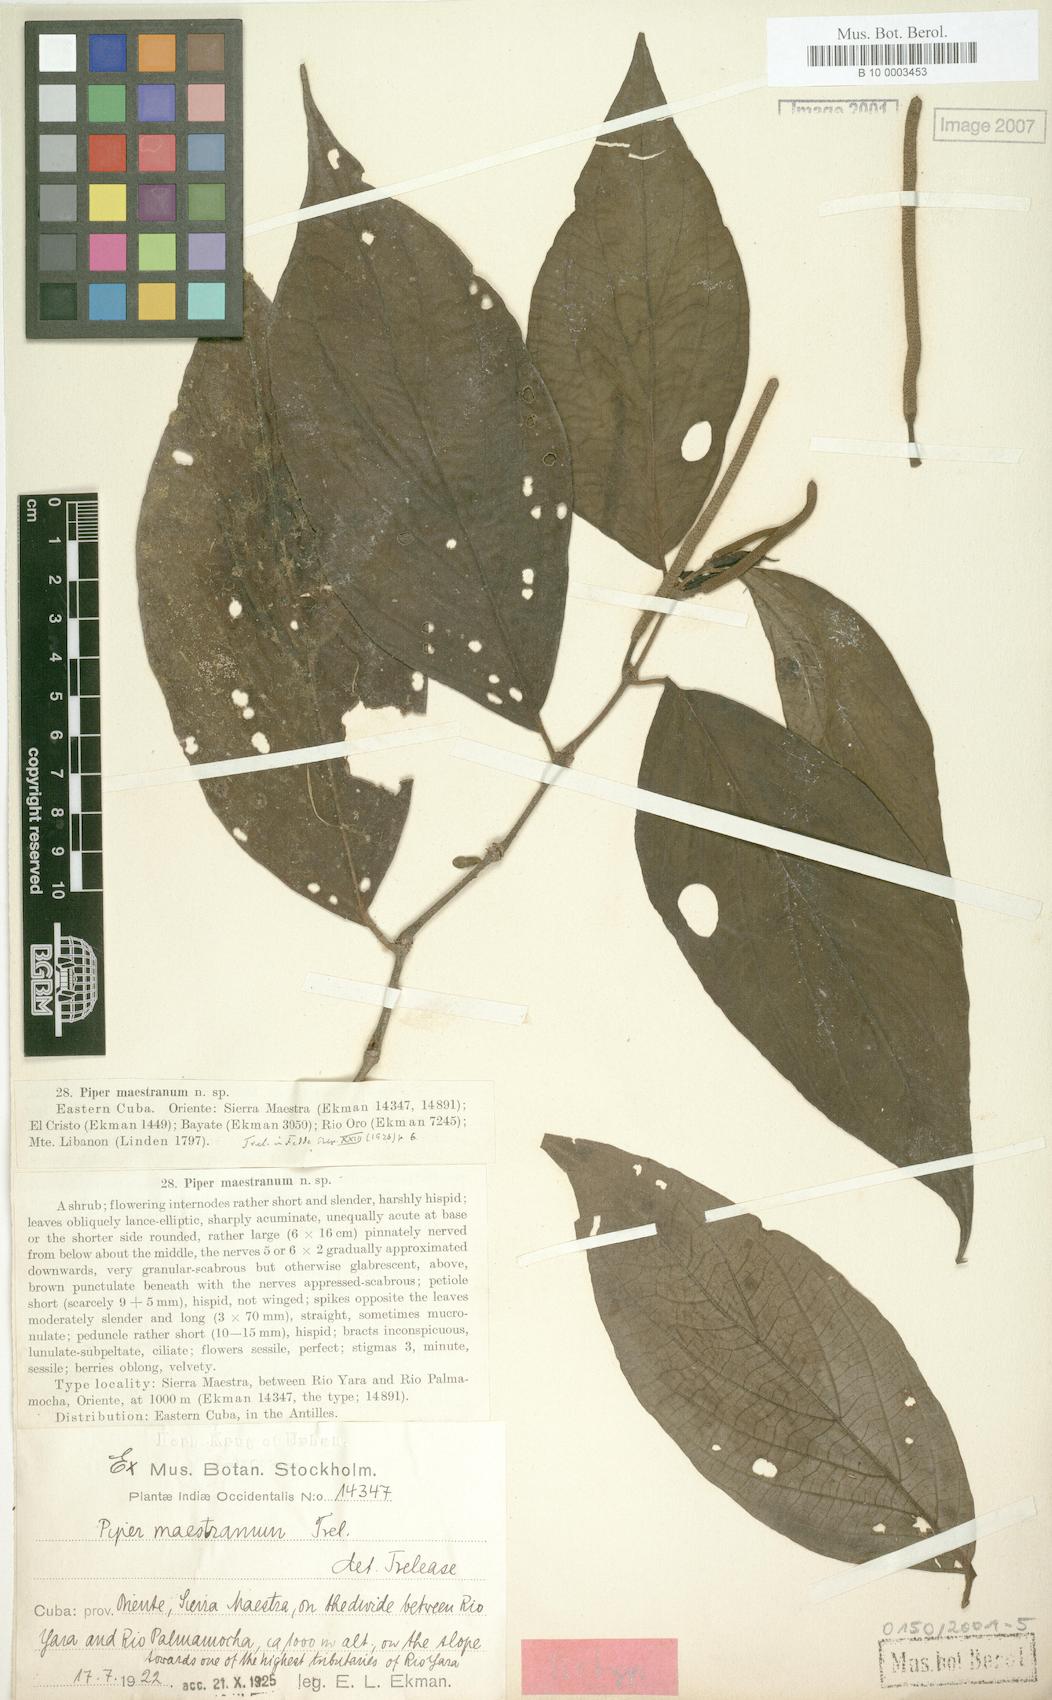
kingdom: Plantae
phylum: Tracheophyta
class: Magnoliopsida
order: Piperales
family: Piperaceae
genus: Piper
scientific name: Piper hispidum
